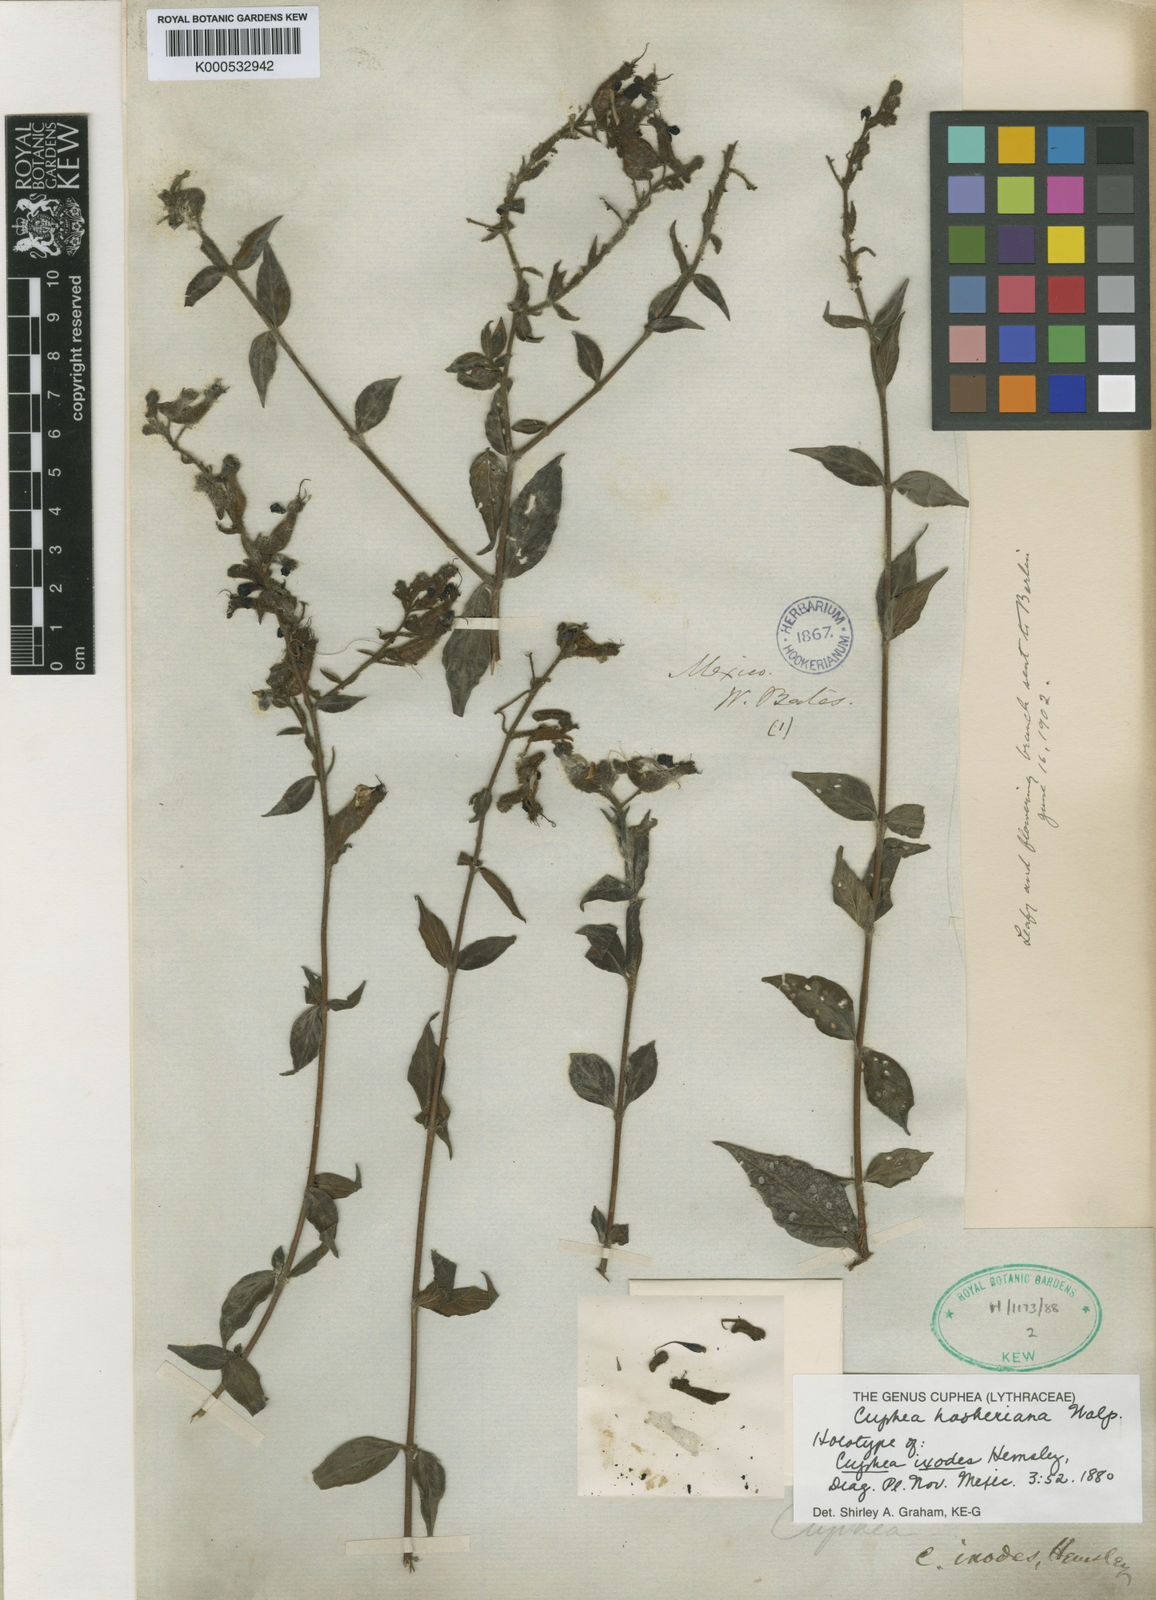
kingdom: Plantae
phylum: Tracheophyta
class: Magnoliopsida
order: Myrtales
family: Lythraceae
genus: Cuphea
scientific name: Cuphea hookeriana
